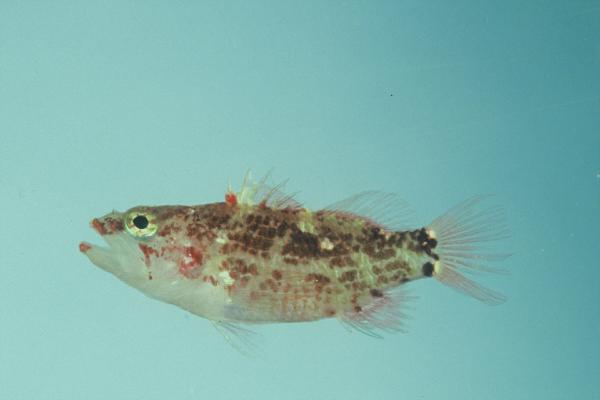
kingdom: Animalia
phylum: Chordata
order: Perciformes
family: Serranidae
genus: Plectranthias
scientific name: Plectranthias longimanus
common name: Longfin perchlet
